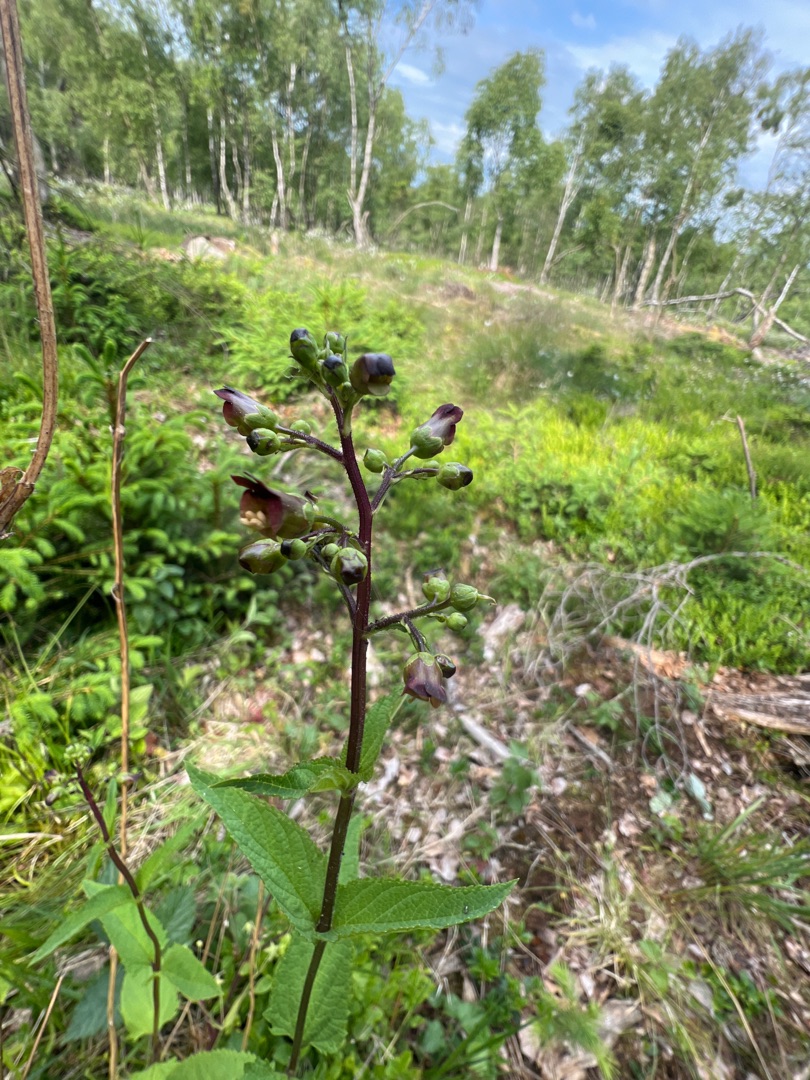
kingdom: Plantae
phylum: Tracheophyta
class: Magnoliopsida
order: Lamiales
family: Scrophulariaceae
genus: Scrophularia
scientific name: Scrophularia nodosa
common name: Knoldet brunrod
